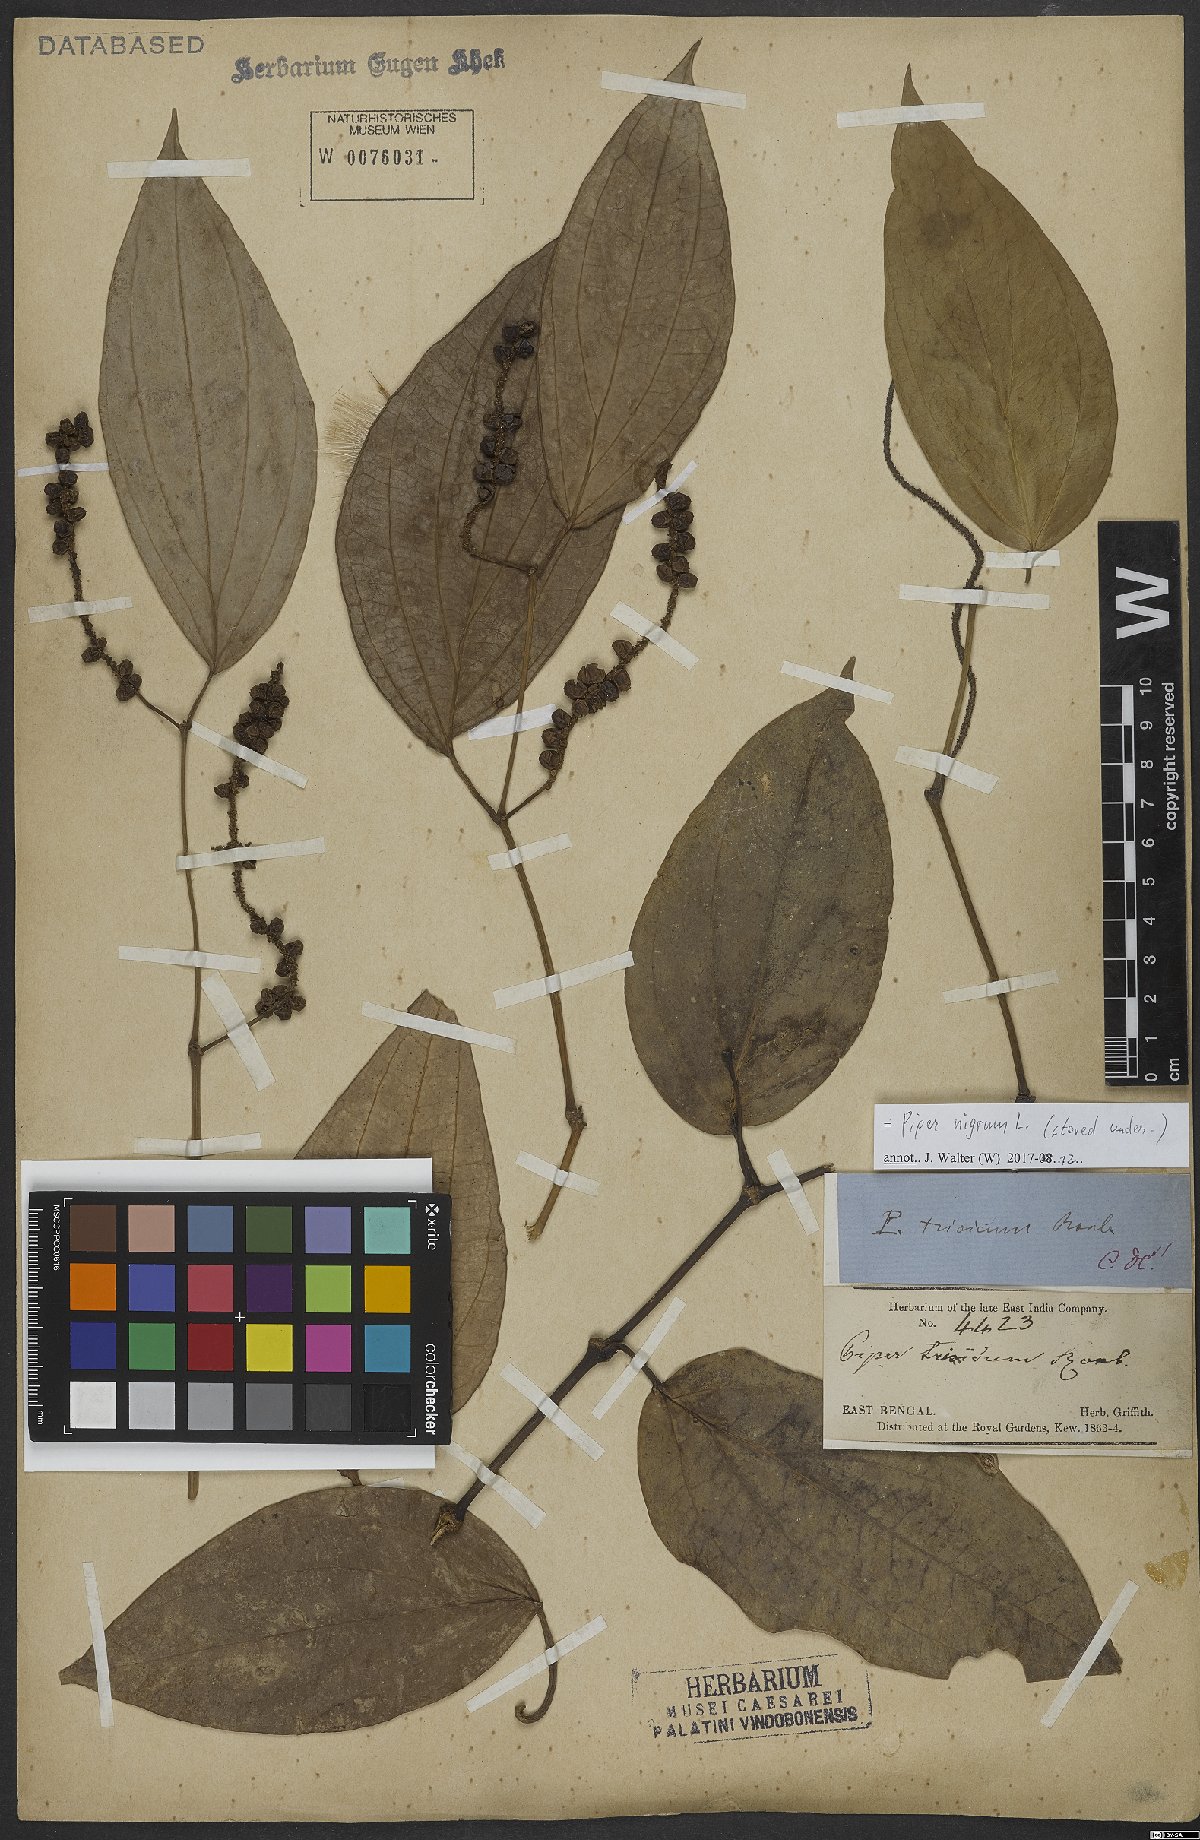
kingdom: Plantae
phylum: Tracheophyta
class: Magnoliopsida
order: Piperales
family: Piperaceae
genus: Piper
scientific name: Piper nigrum
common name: Black pepper
